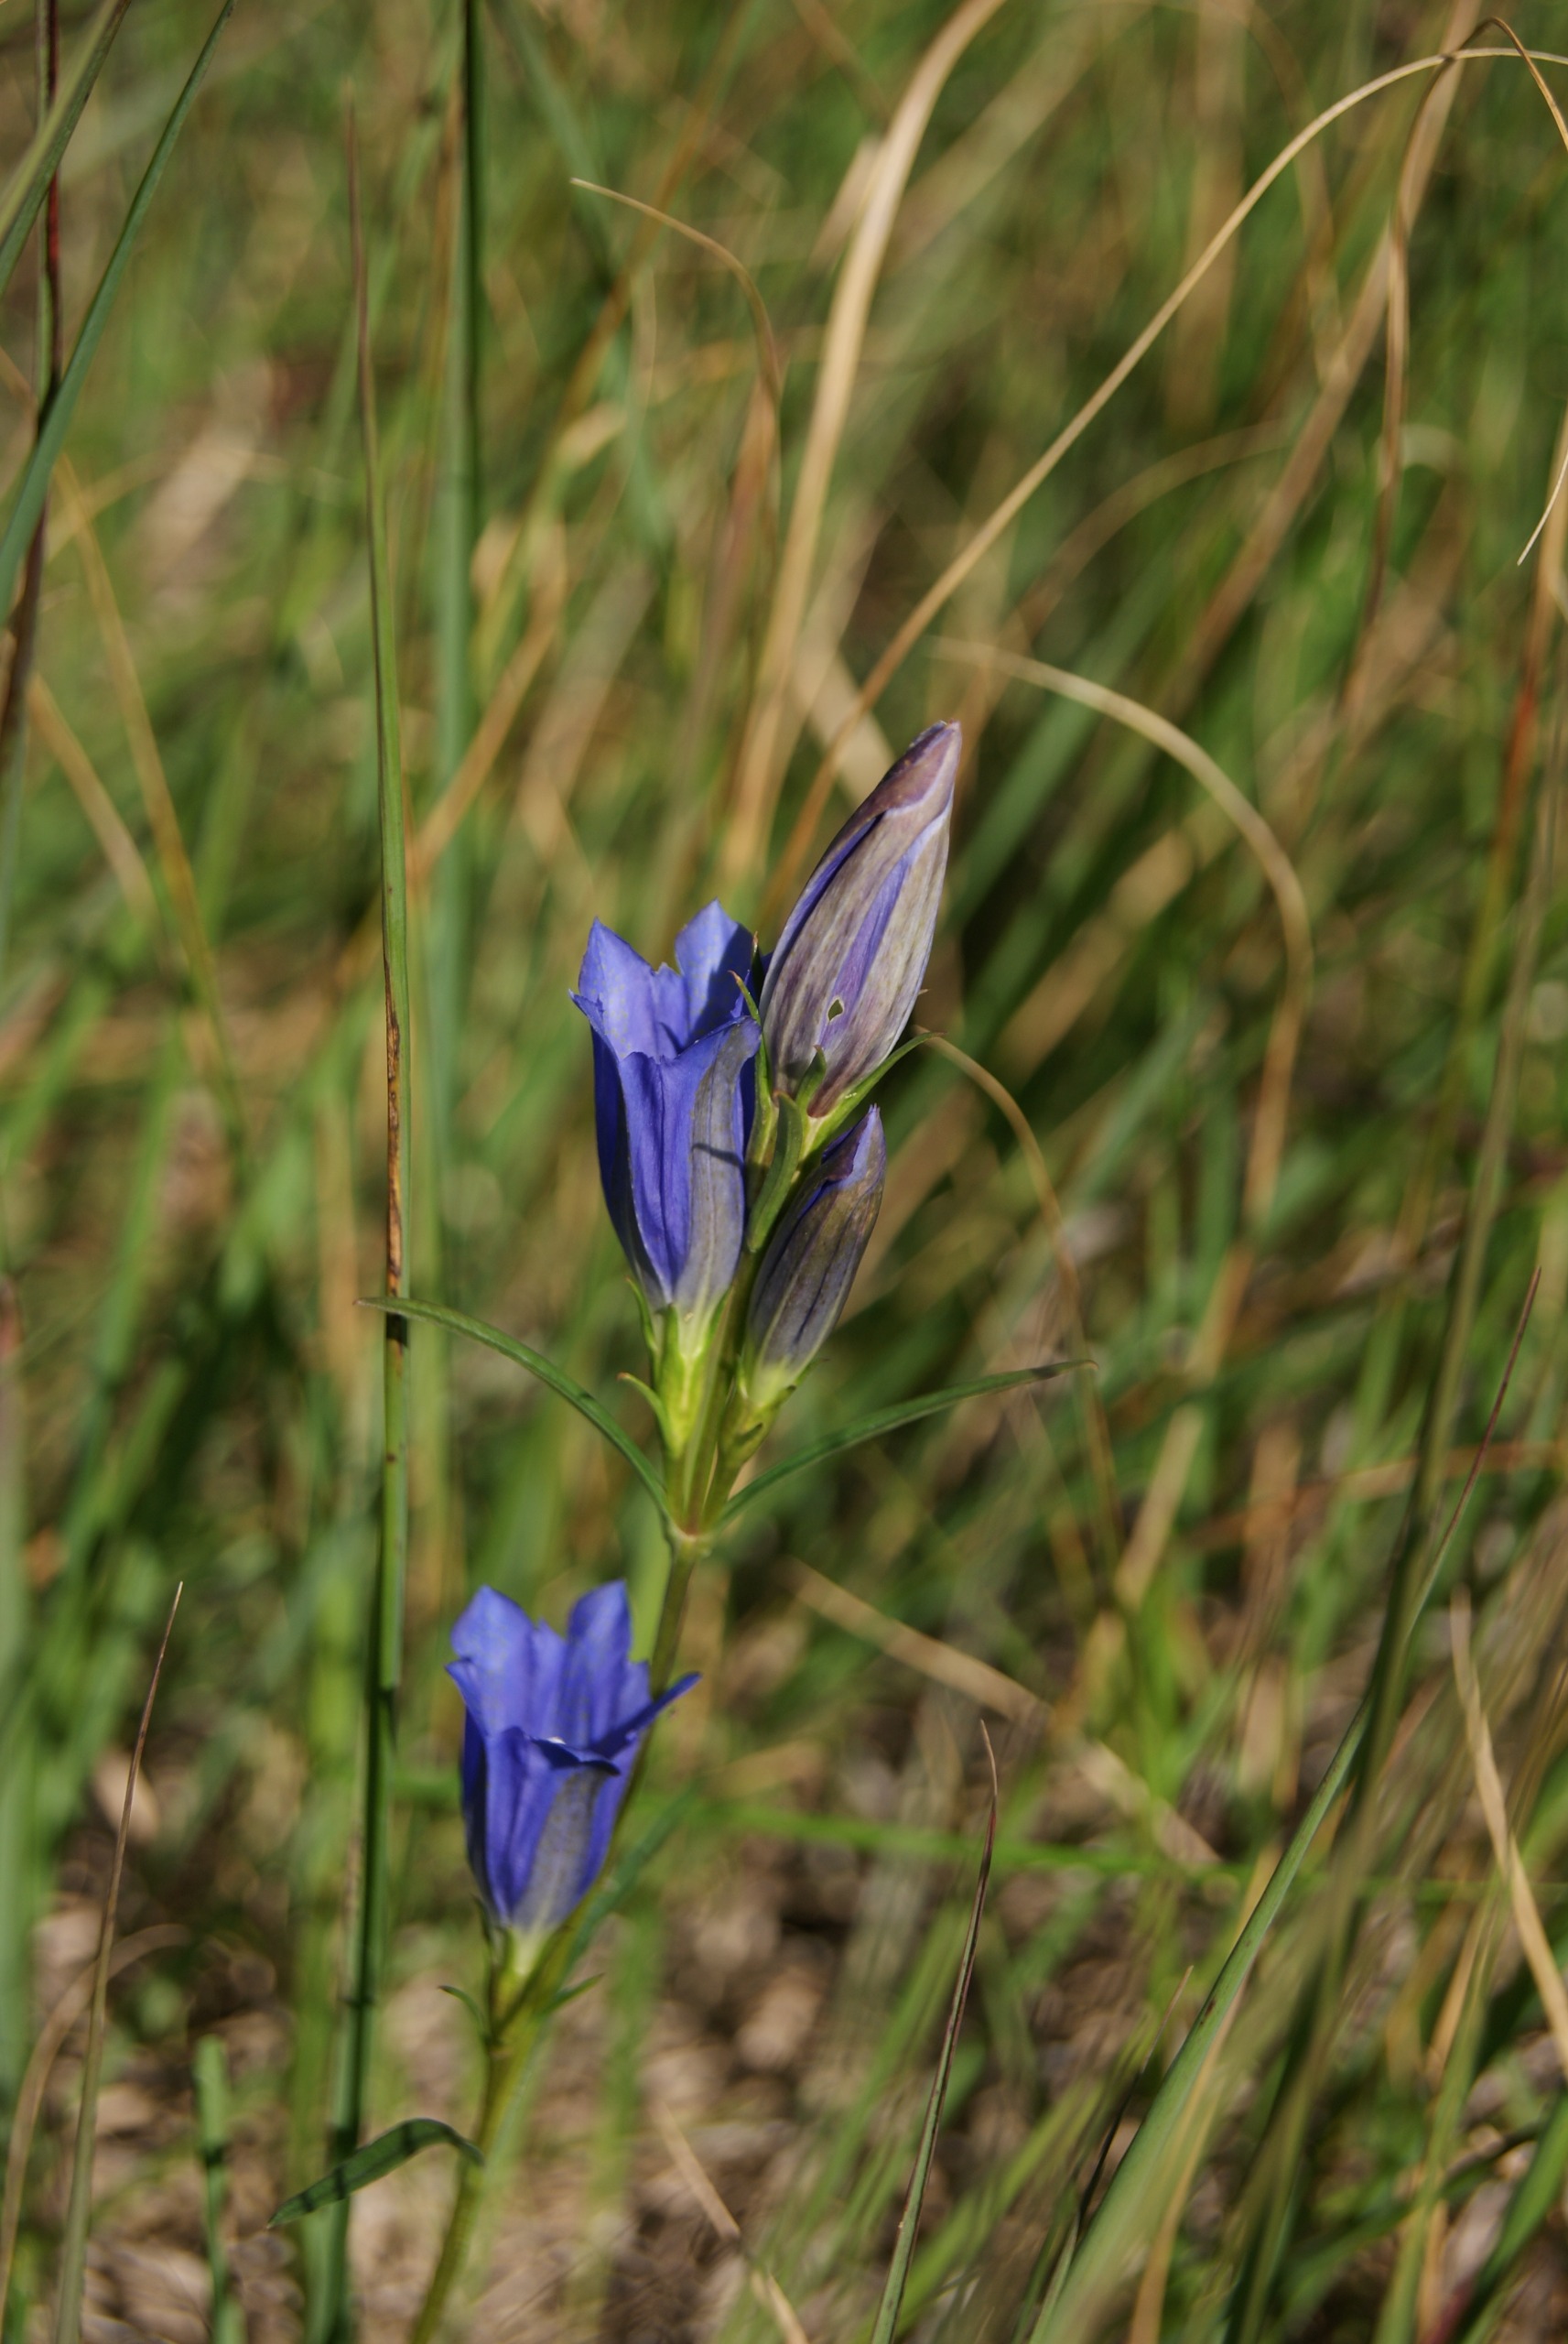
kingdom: Plantae
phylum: Tracheophyta
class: Magnoliopsida
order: Gentianales
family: Gentianaceae
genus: Gentiana
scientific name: Gentiana pneumonanthe
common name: Klokke-ensian
